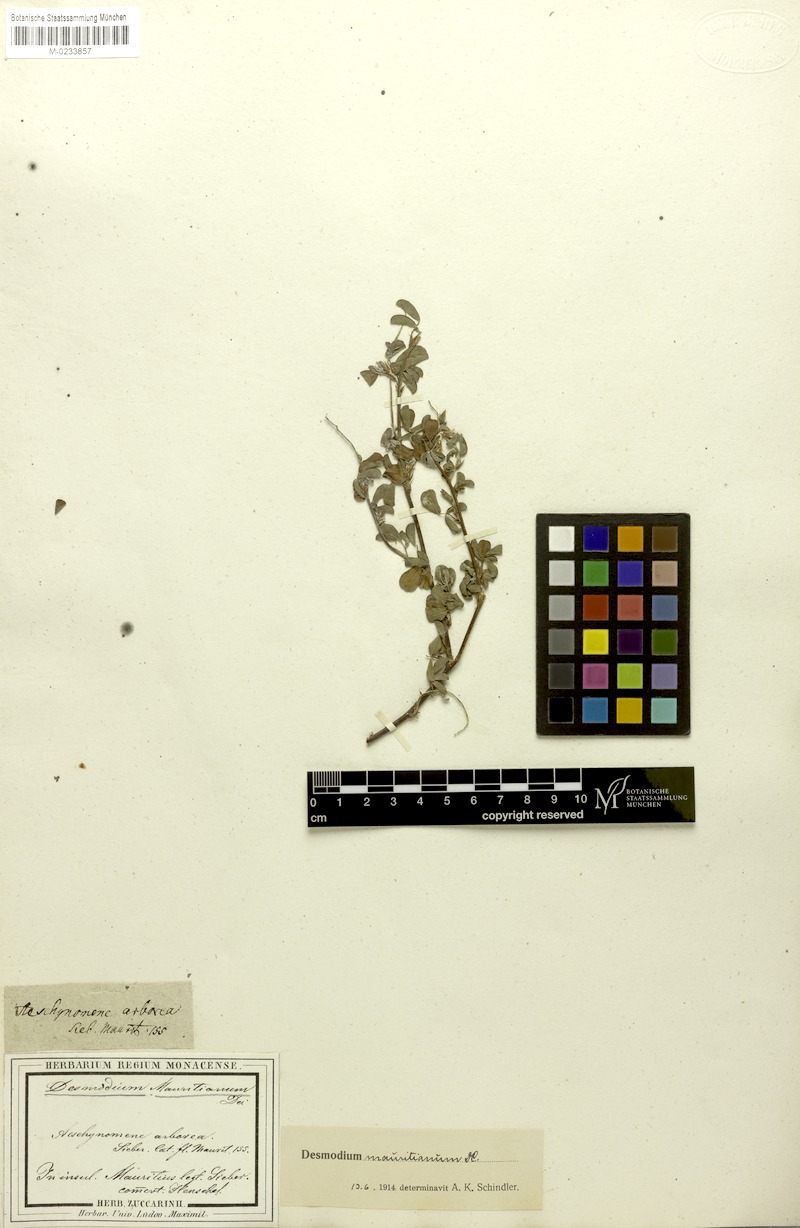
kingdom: Plantae
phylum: Tracheophyta
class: Magnoliopsida
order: Fabales
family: Fabaceae
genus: Grona
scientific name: Grona ramosissima
